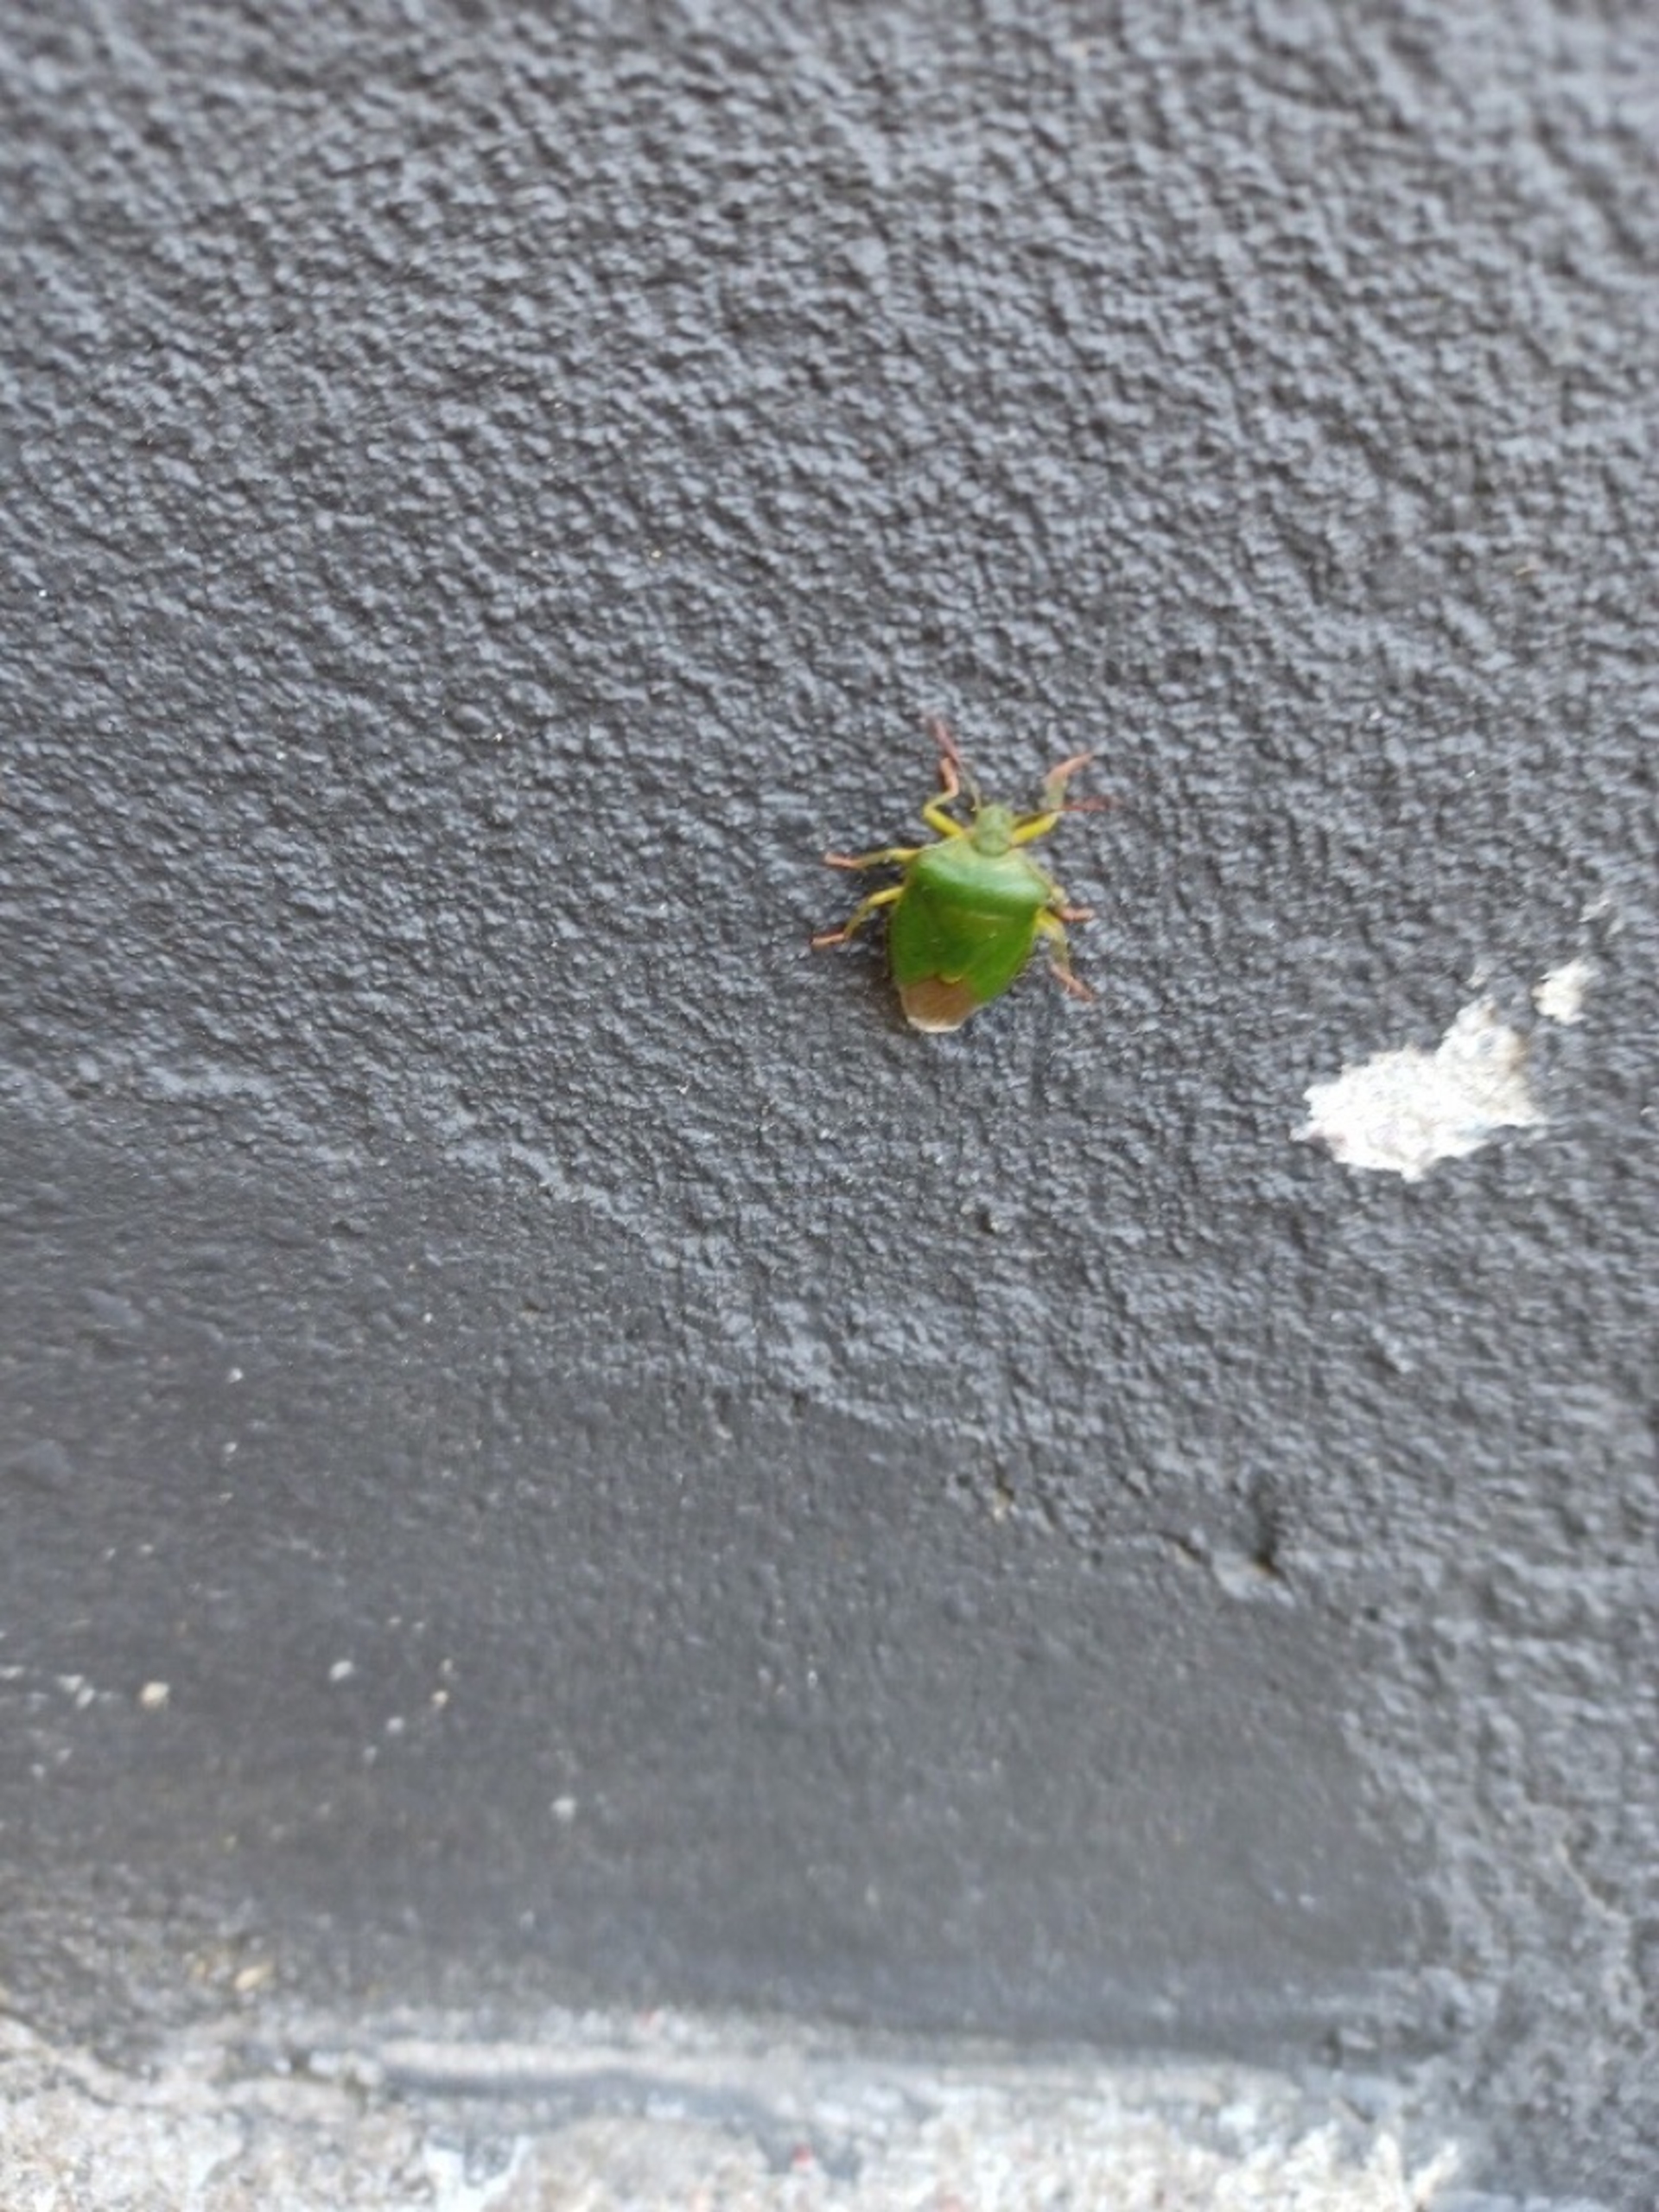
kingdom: Animalia
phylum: Arthropoda
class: Insecta
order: Hemiptera
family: Pentatomidae
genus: Palomena
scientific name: Palomena prasina
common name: Grøn bredtæge
